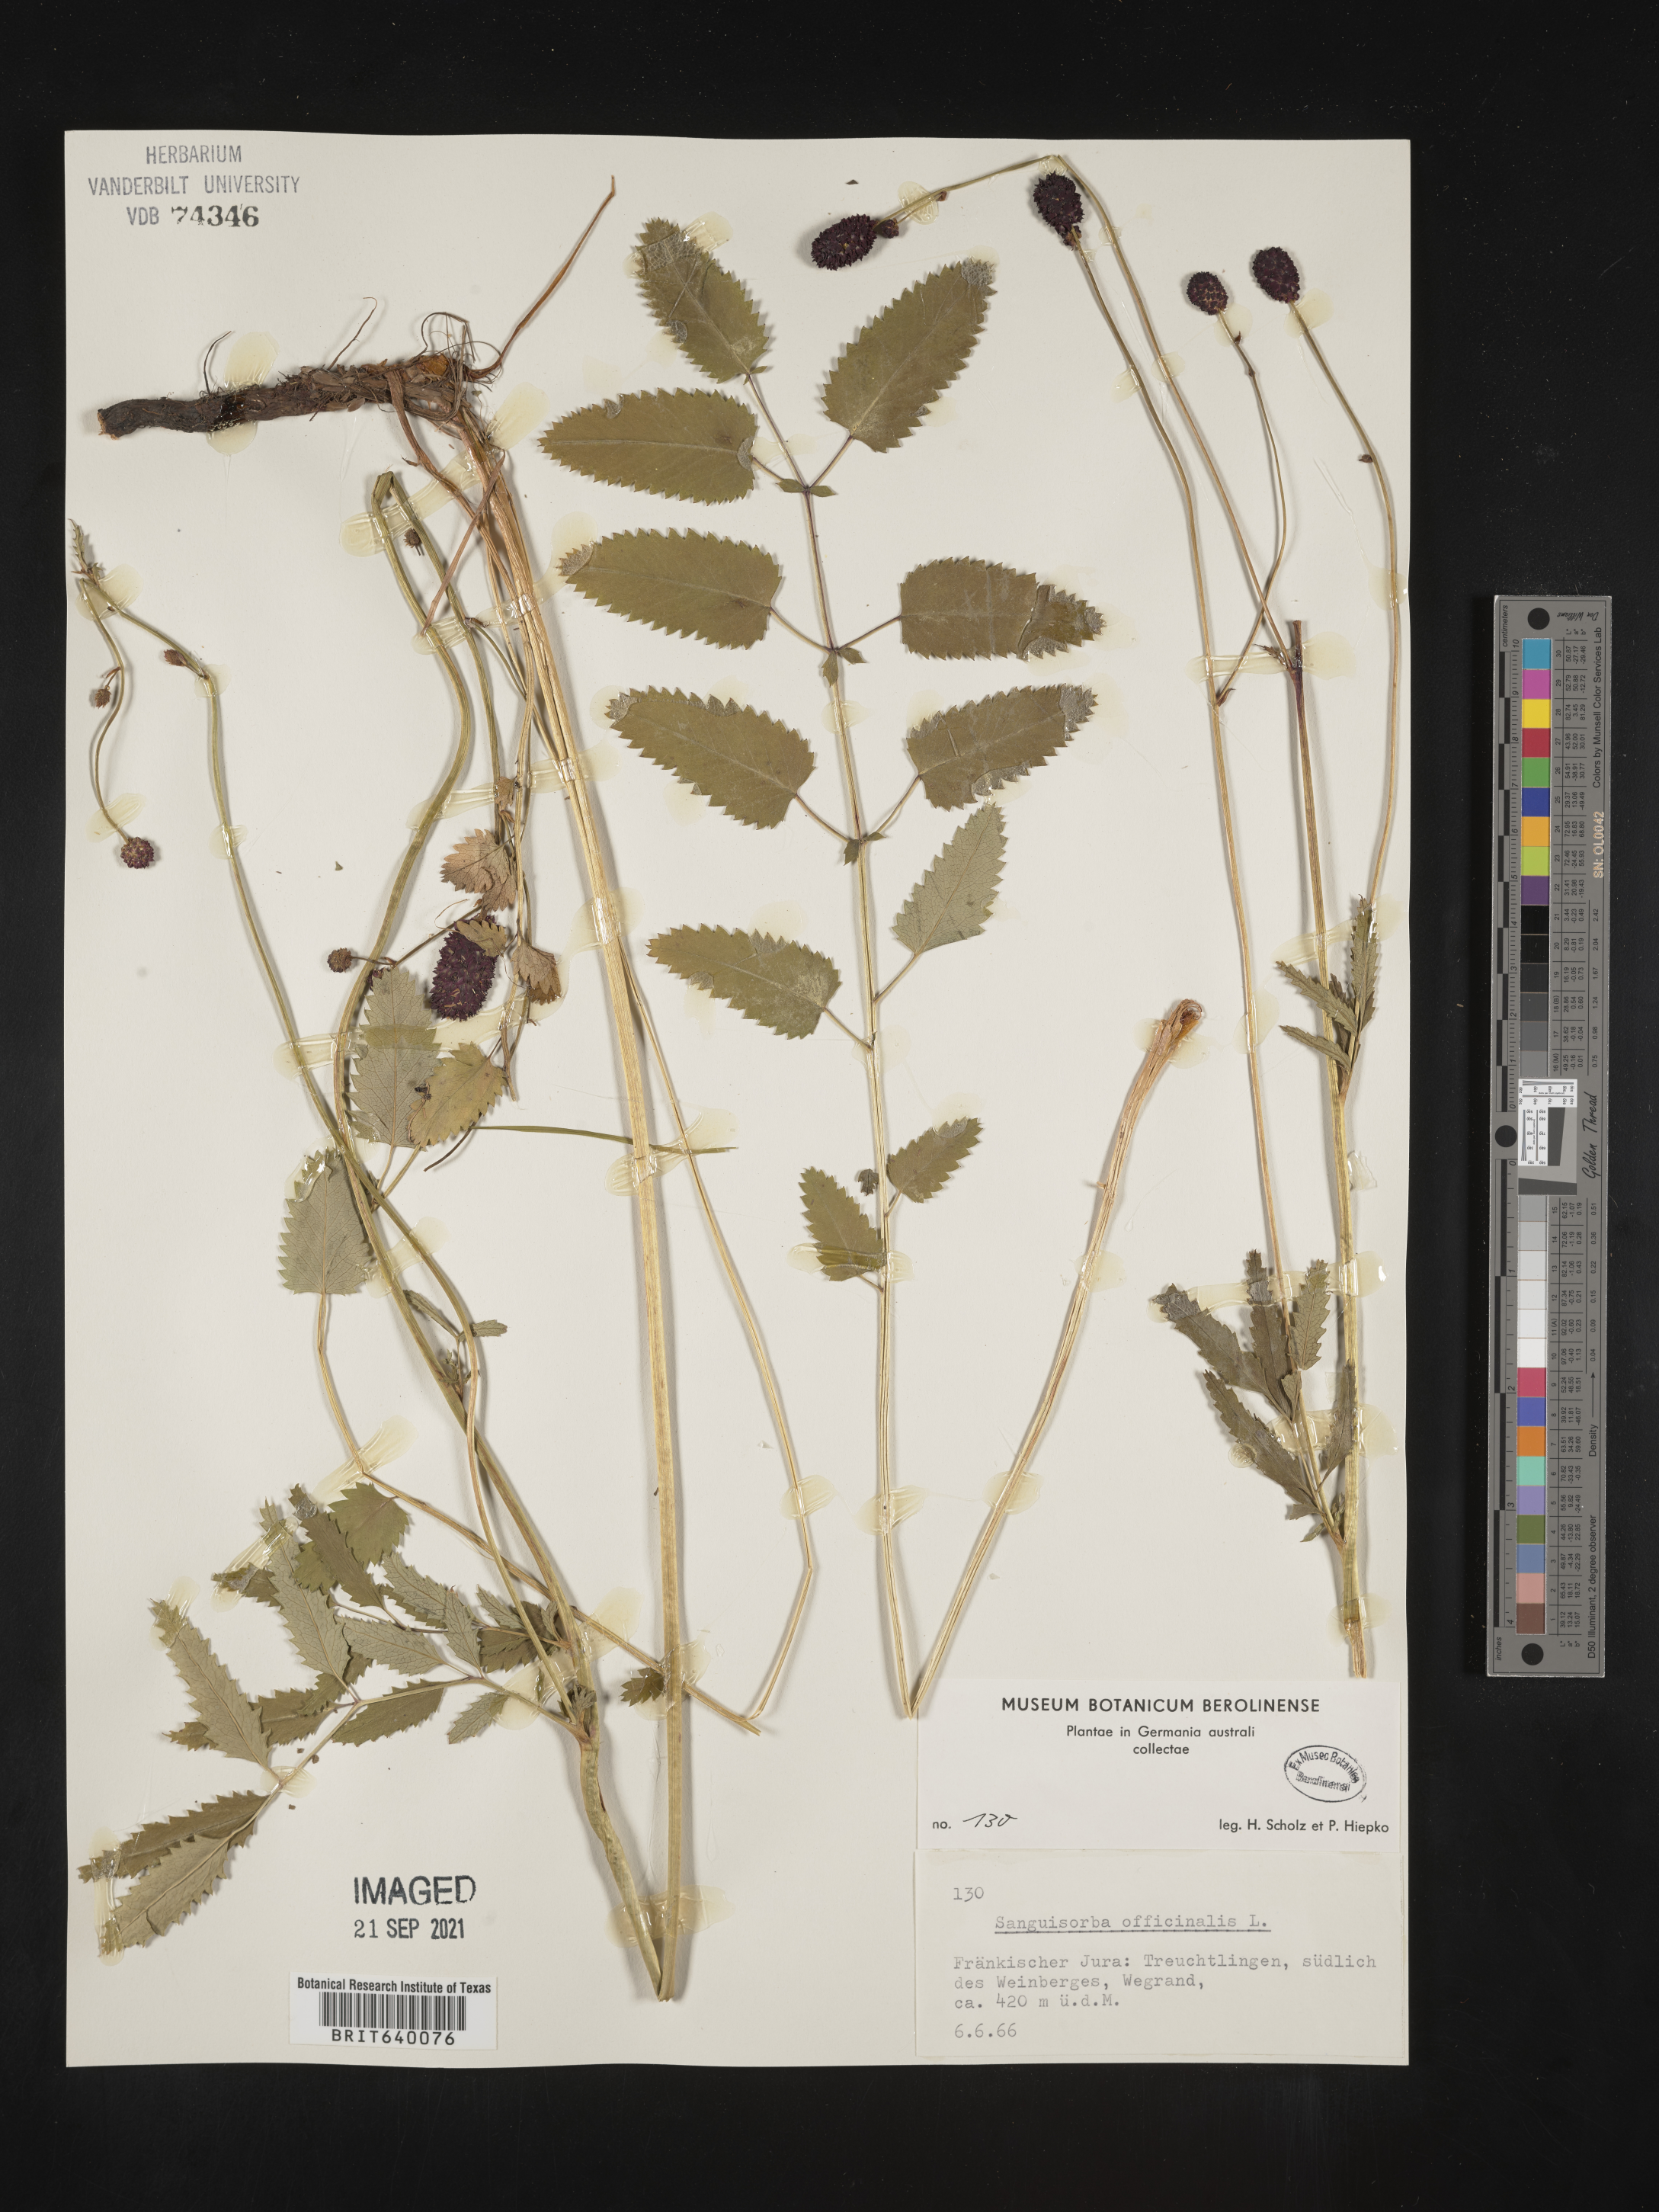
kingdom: Plantae
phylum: Tracheophyta
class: Magnoliopsida
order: Rosales
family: Rosaceae
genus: Sanguisorba
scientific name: Sanguisorba
